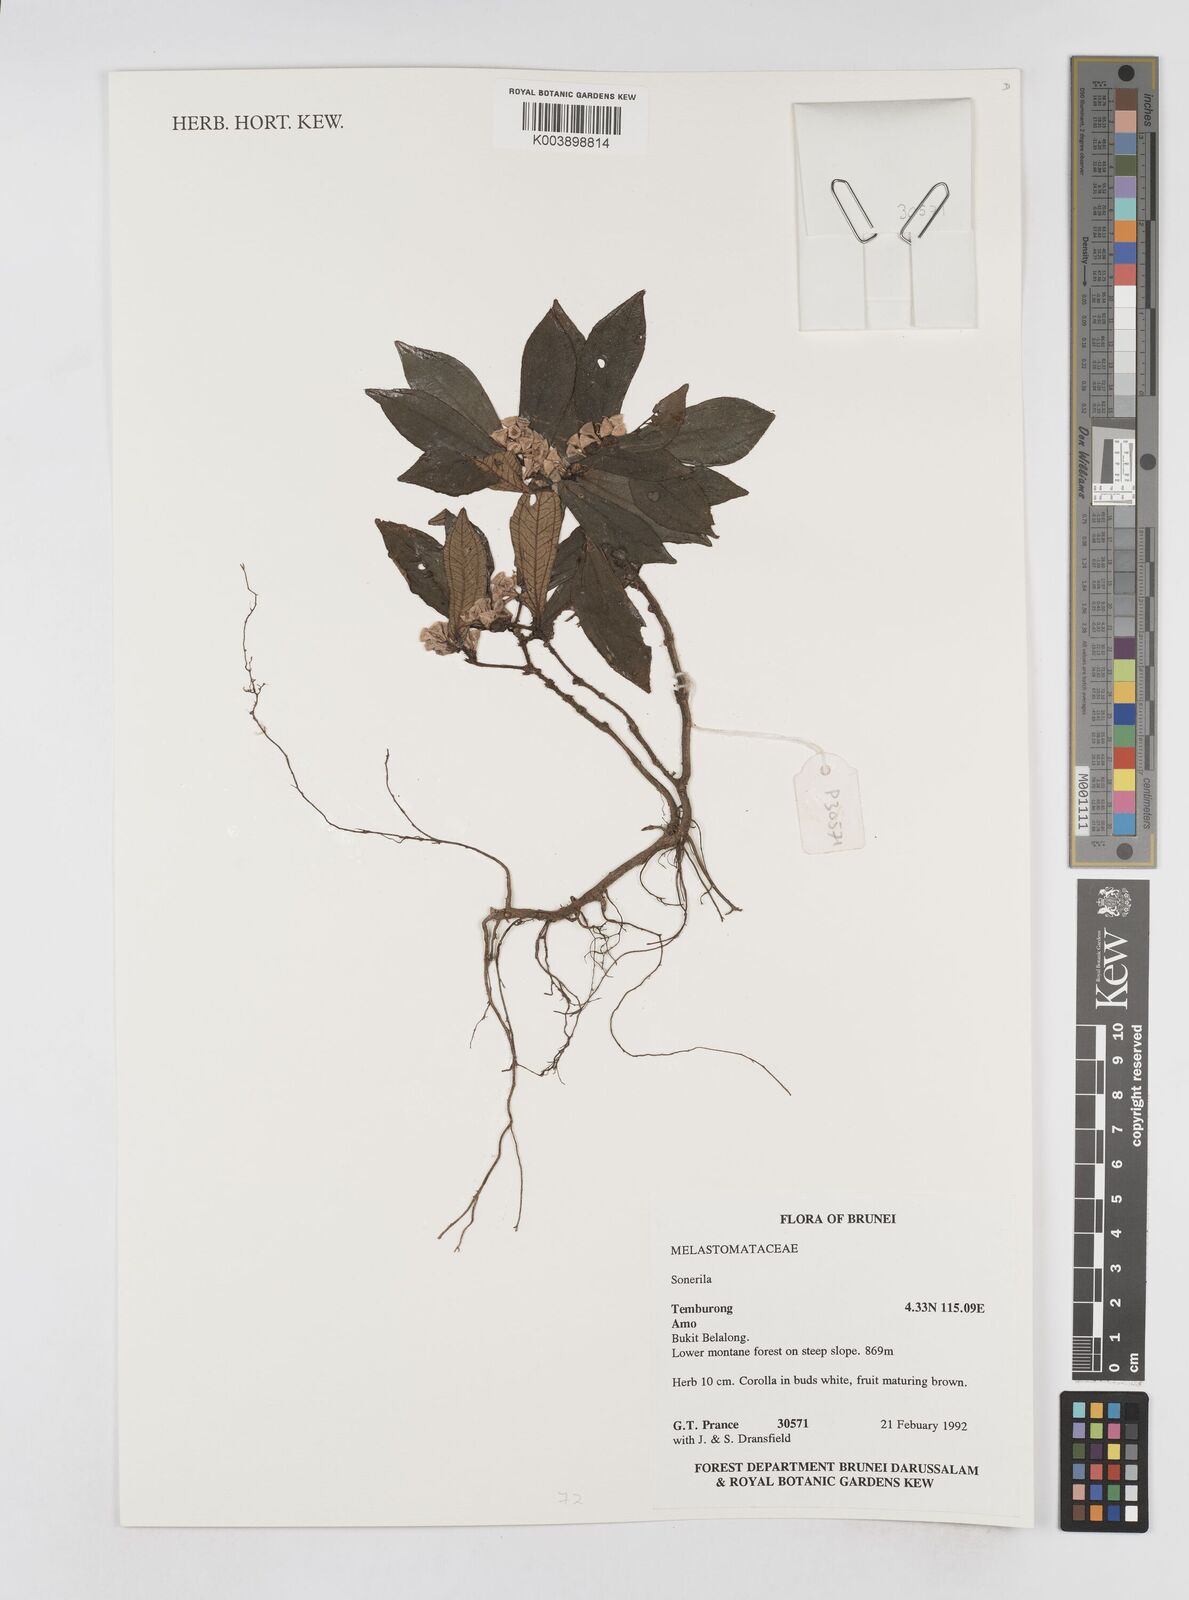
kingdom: Plantae
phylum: Tracheophyta
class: Magnoliopsida
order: Myrtales
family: Melastomataceae
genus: Sonerila
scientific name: Sonerila
